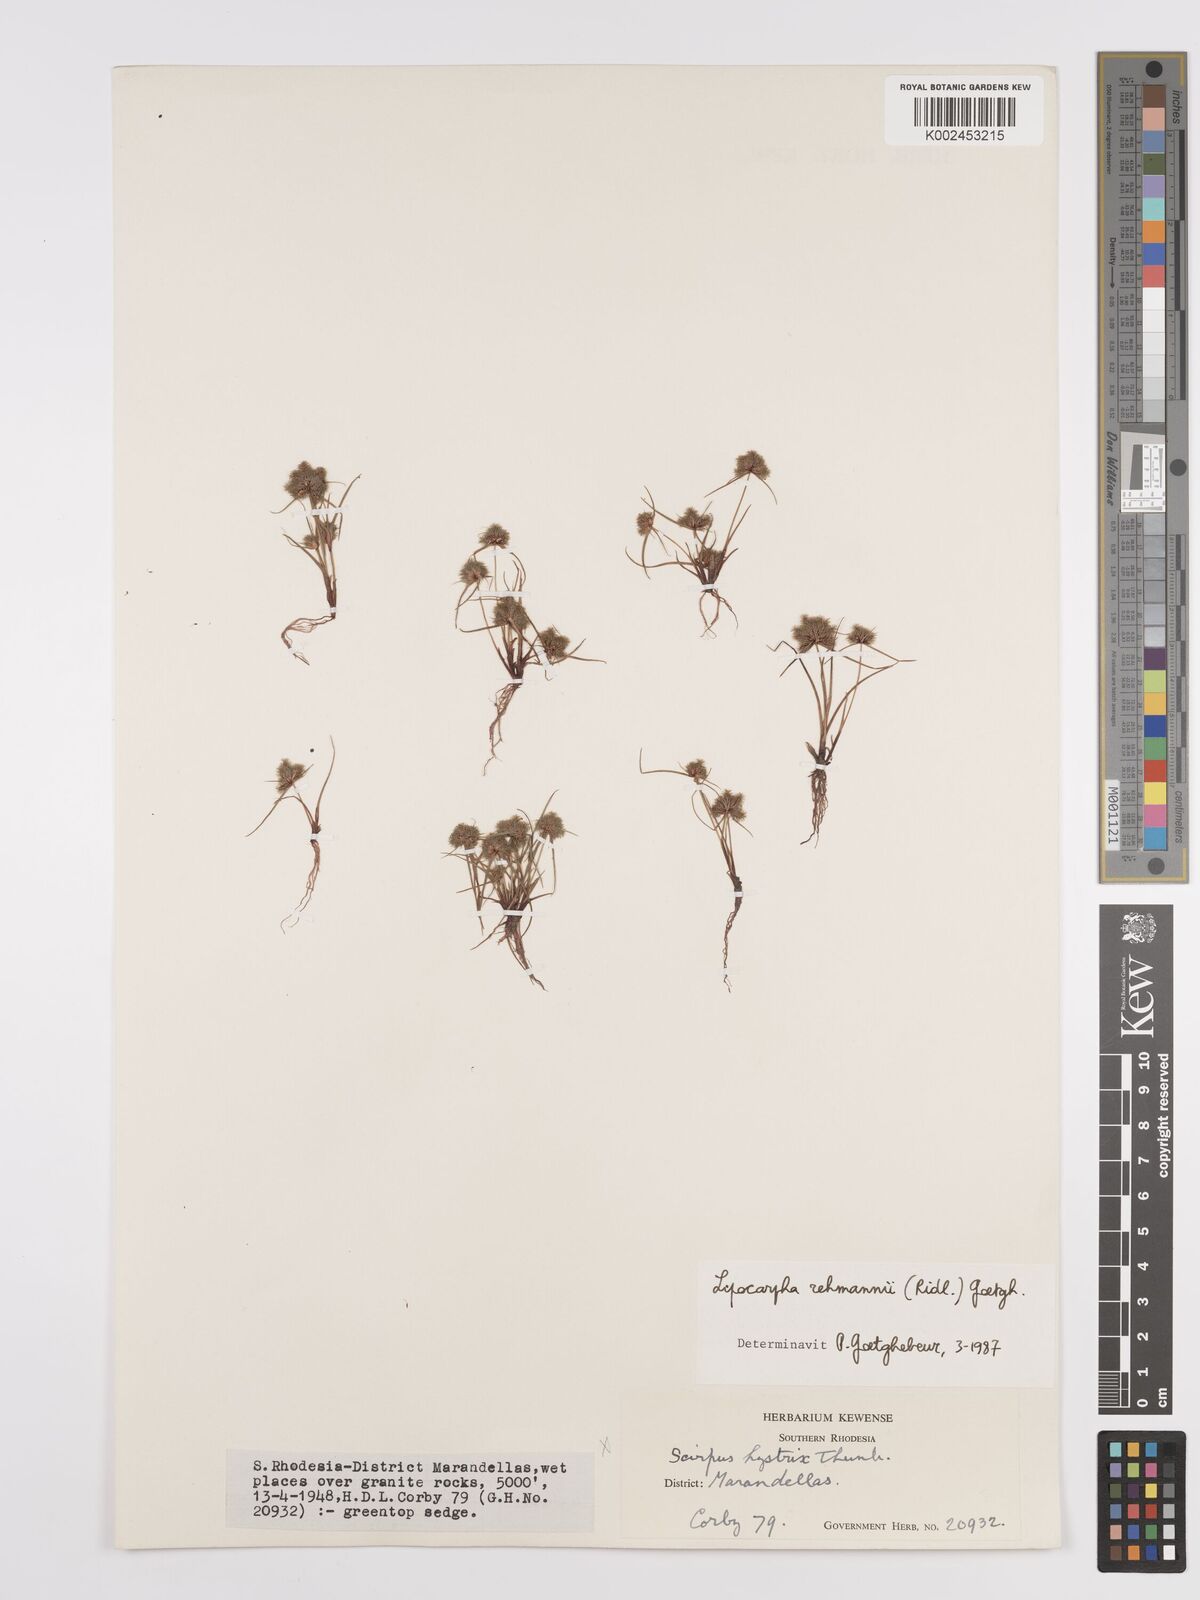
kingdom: Plantae
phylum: Tracheophyta
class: Liliopsida
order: Poales
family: Cyperaceae
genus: Cyperus
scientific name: Cyperus sanguinolentus
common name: Purpleglume flatsedge
